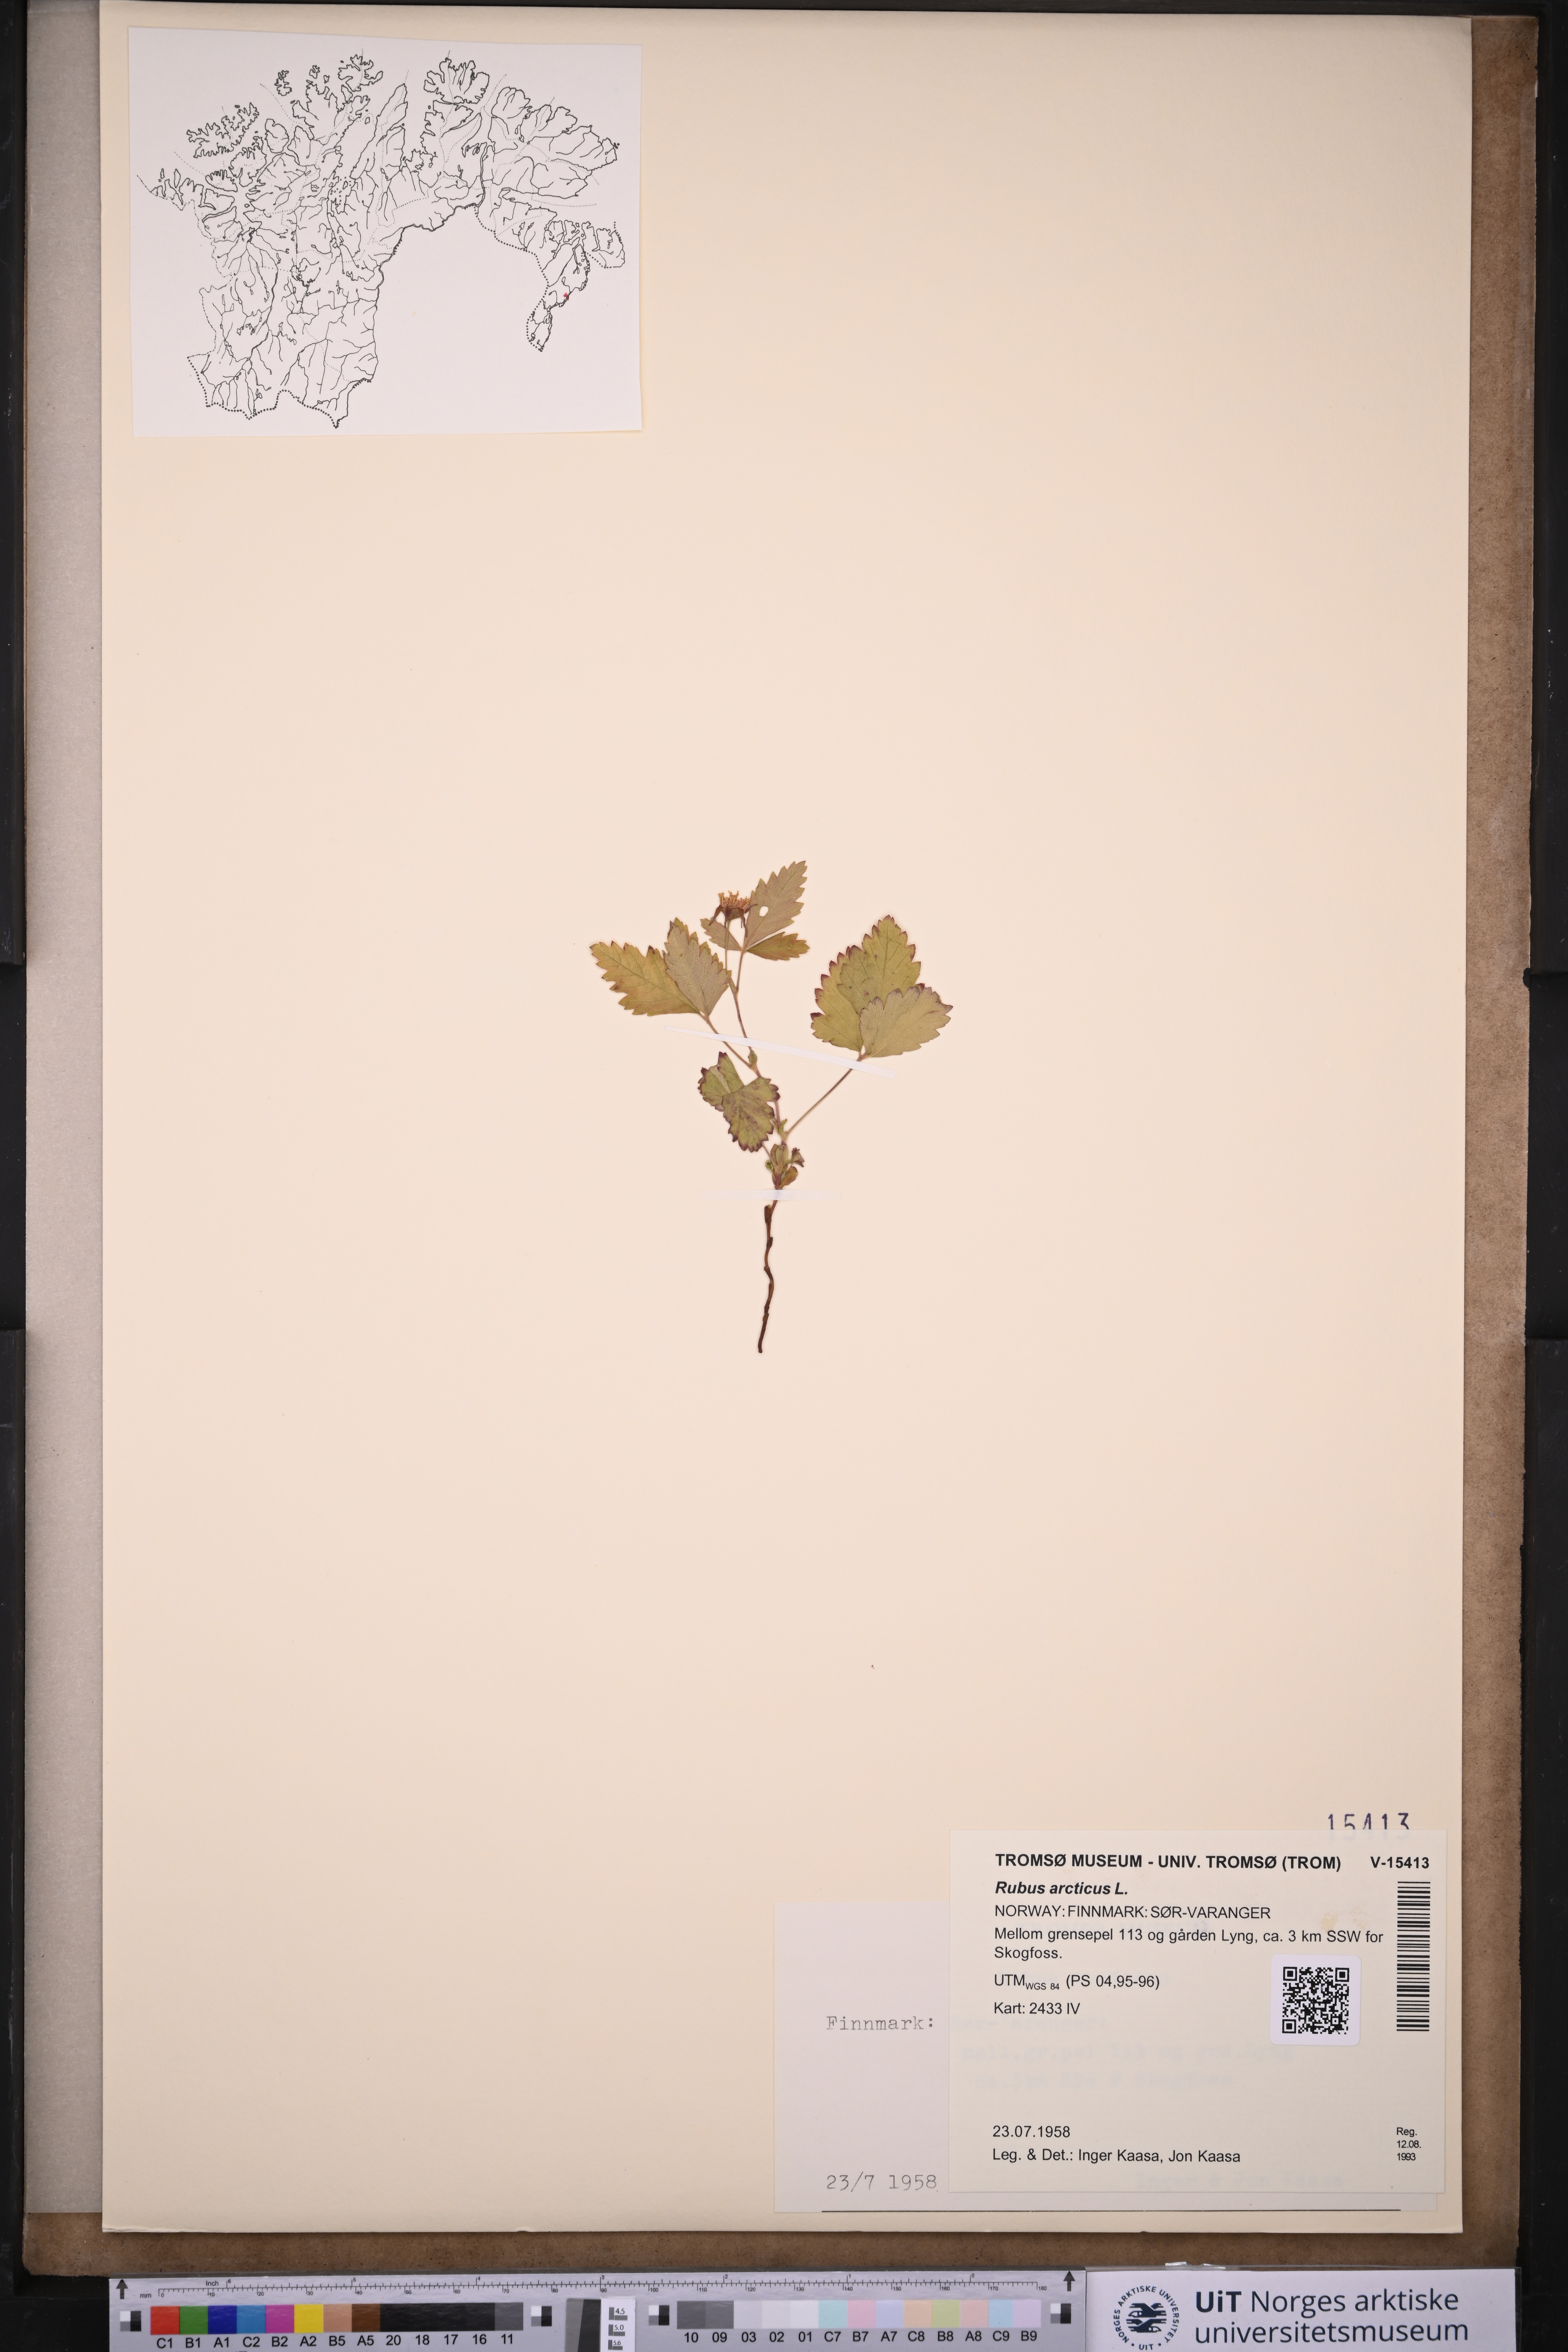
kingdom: Plantae
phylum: Tracheophyta
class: Magnoliopsida
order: Rosales
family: Rosaceae
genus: Rubus
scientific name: Rubus arcticus
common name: Arctic bramble
